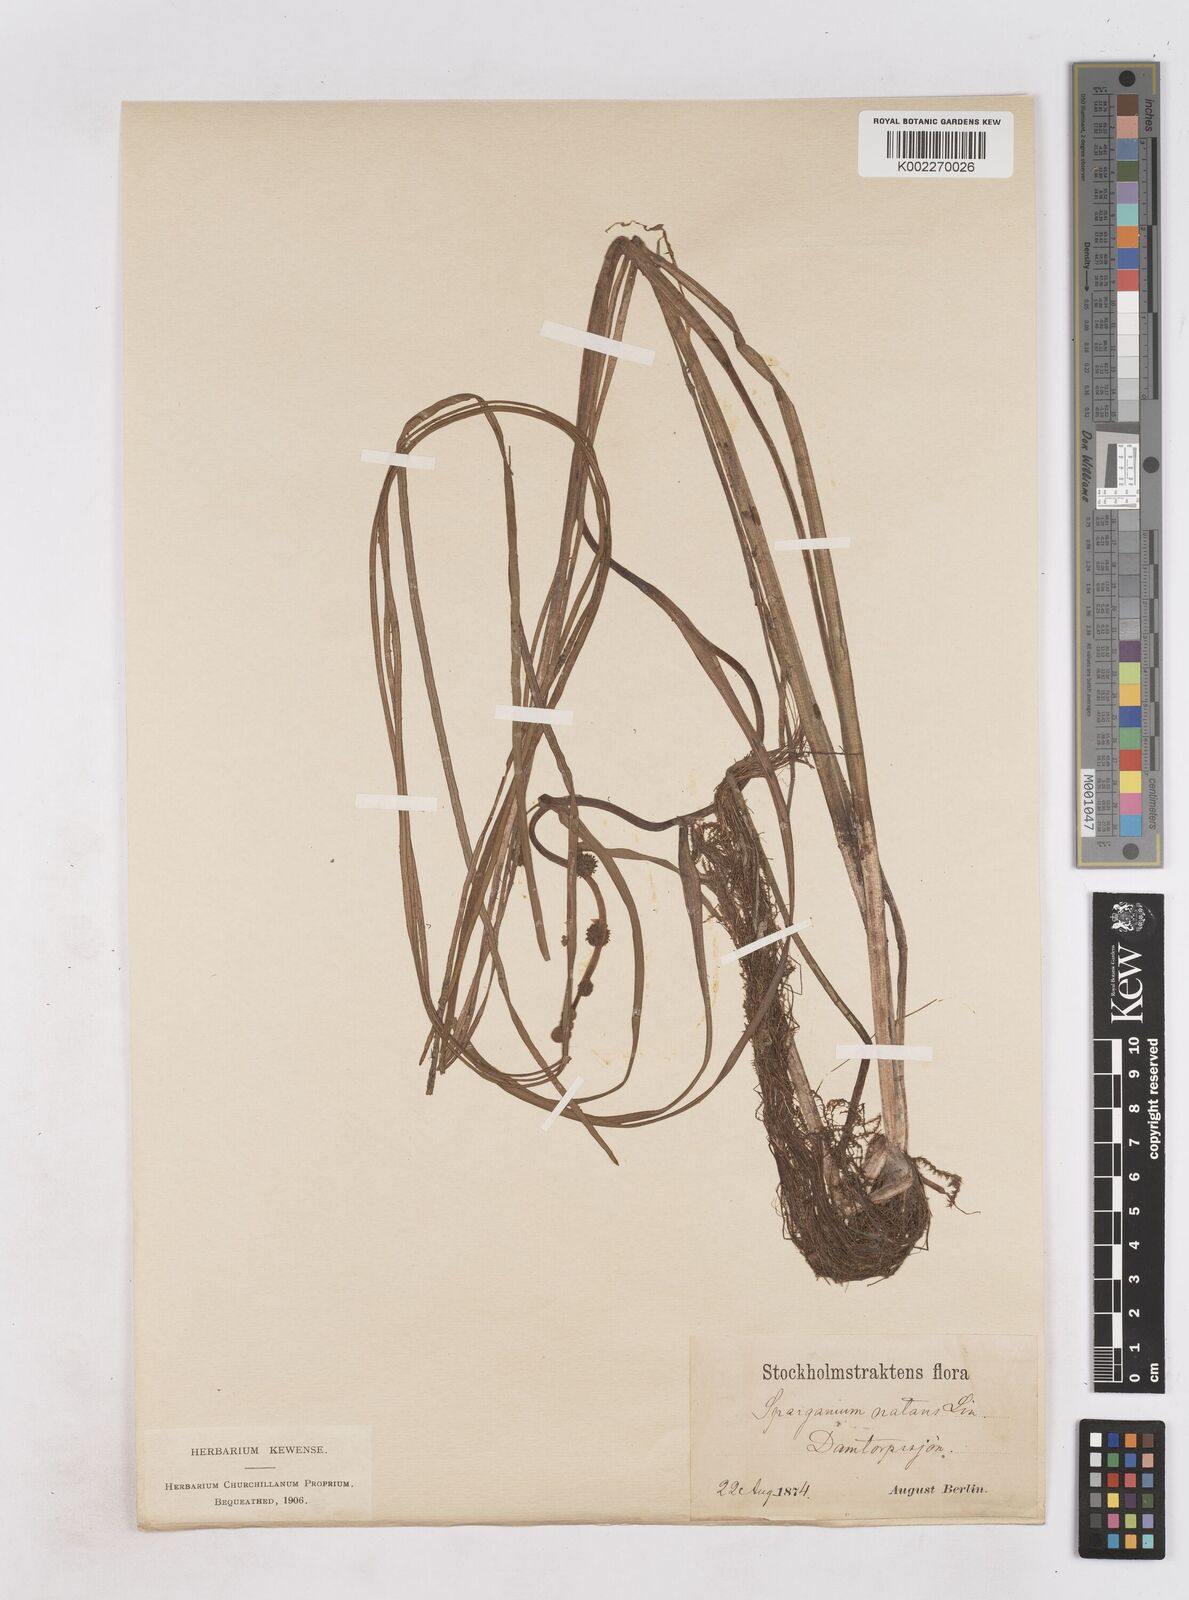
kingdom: Plantae
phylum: Tracheophyta
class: Liliopsida
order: Poales
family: Typhaceae
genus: Sparganium
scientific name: Sparganium gramineum
